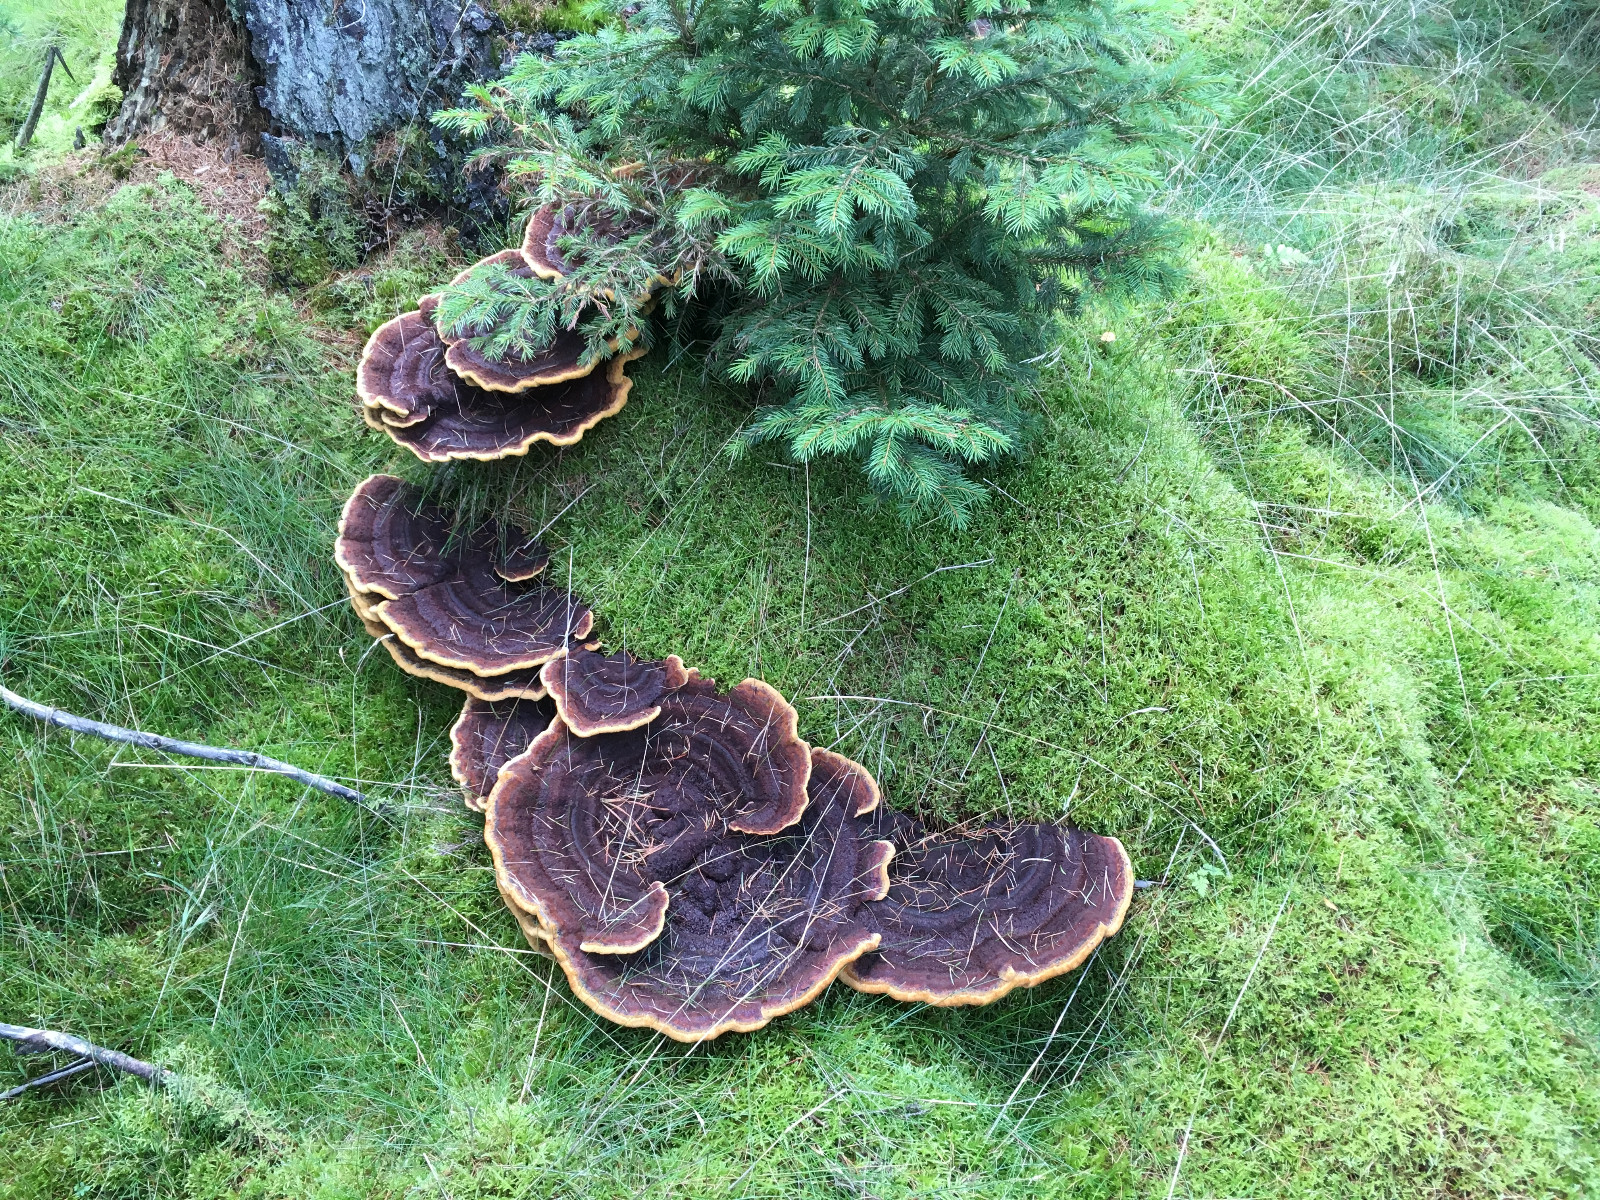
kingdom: Fungi
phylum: Basidiomycota
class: Agaricomycetes
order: Polyporales
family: Laetiporaceae
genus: Phaeolus
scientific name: Phaeolus schweinitzii
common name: brunporesvamp
